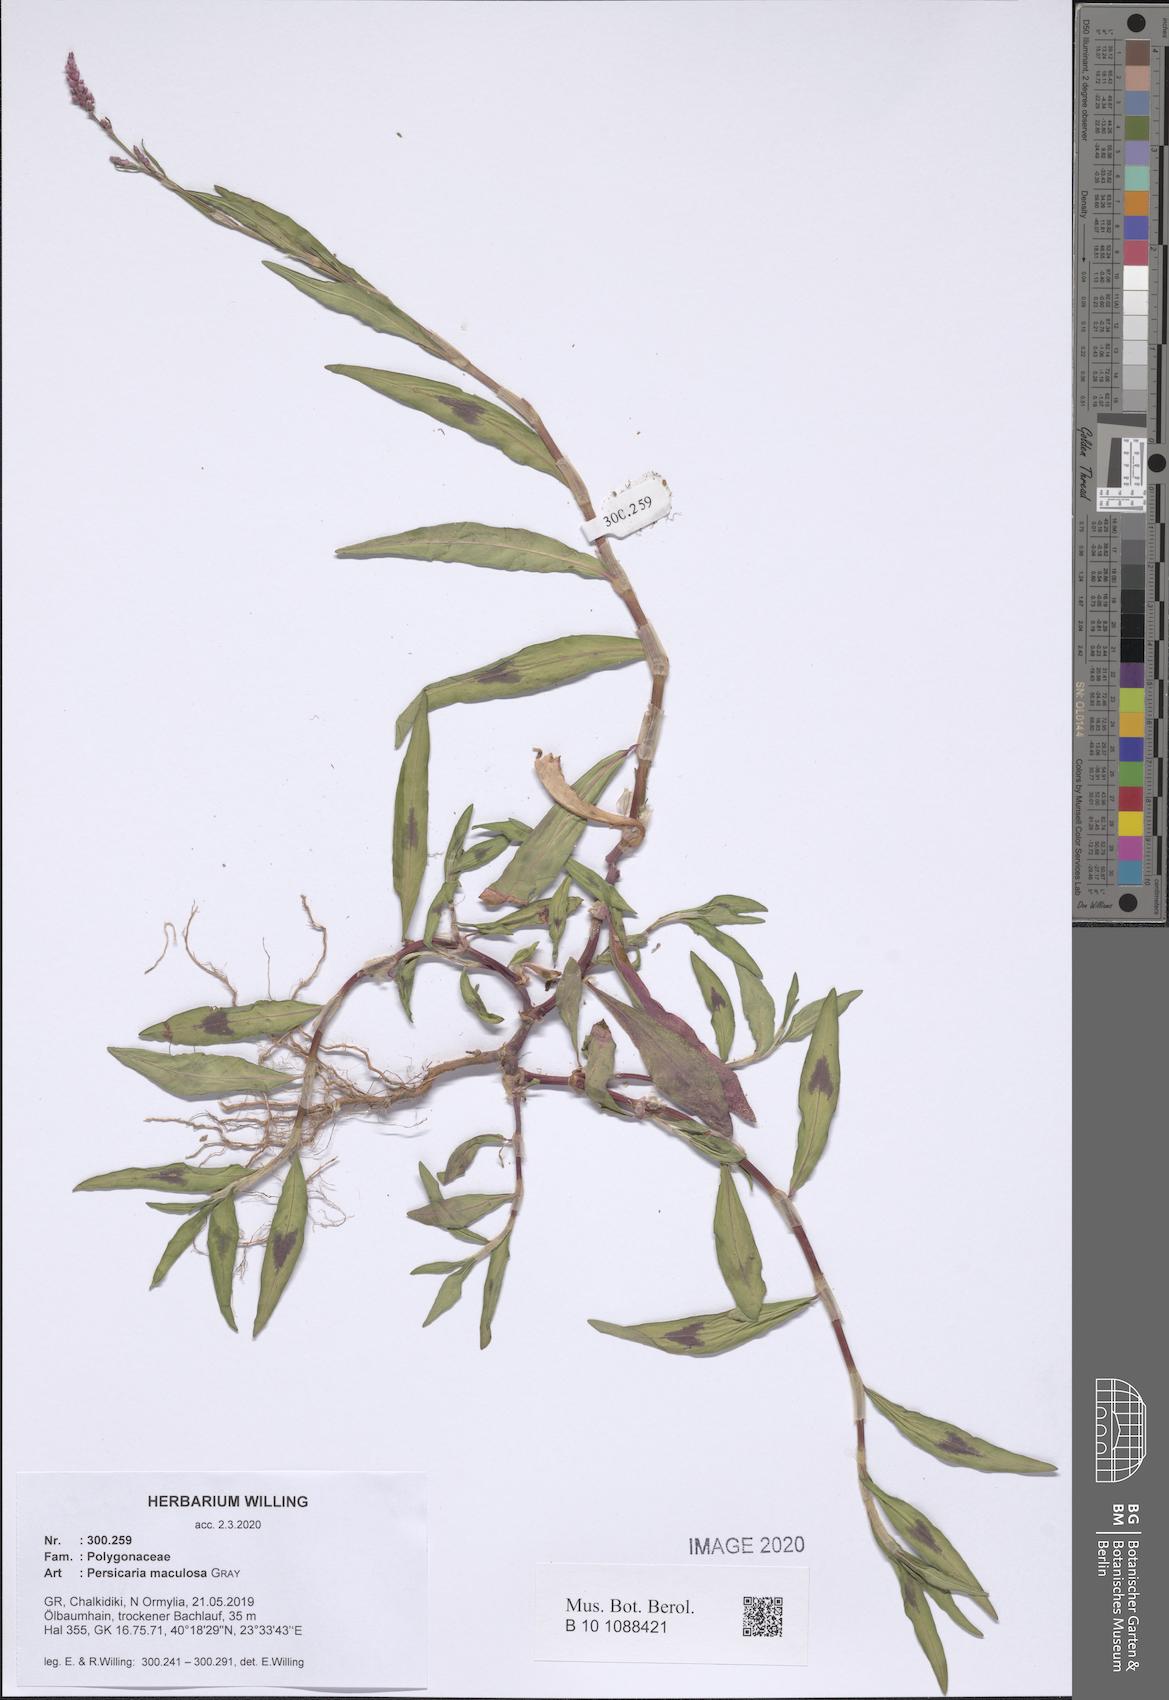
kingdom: Plantae
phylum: Tracheophyta
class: Magnoliopsida
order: Caryophyllales
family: Polygonaceae
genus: Persicaria
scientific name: Persicaria maculosa
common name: Redshank
